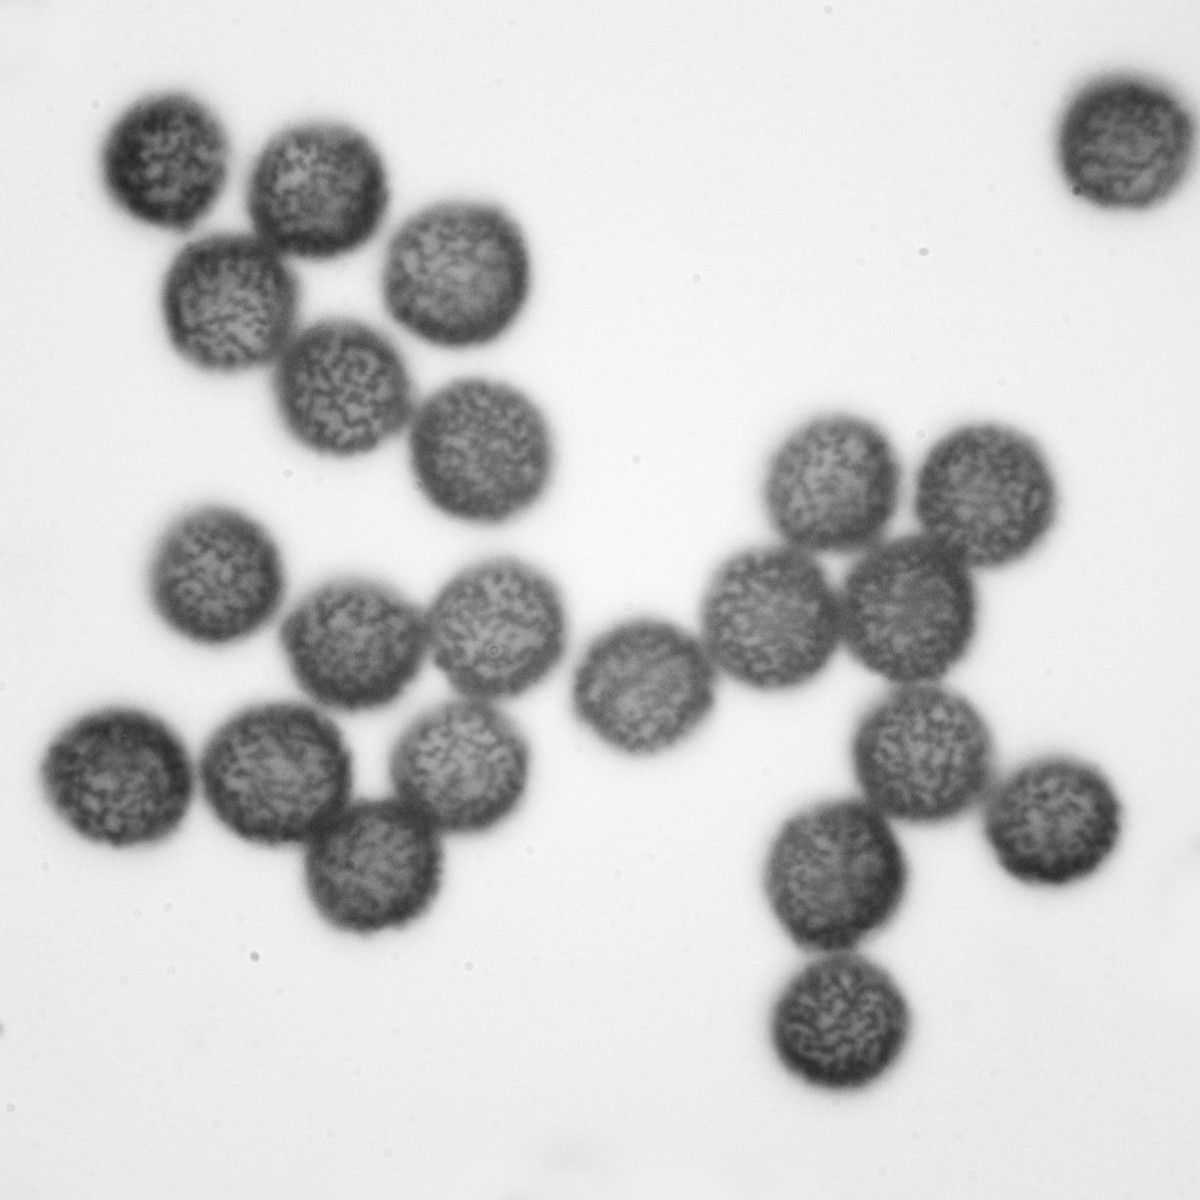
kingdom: Protozoa
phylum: Mycetozoa
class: Myxomycetes
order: Physarales
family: Physaraceae
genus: Badhamia
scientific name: Badhamia lilacina
